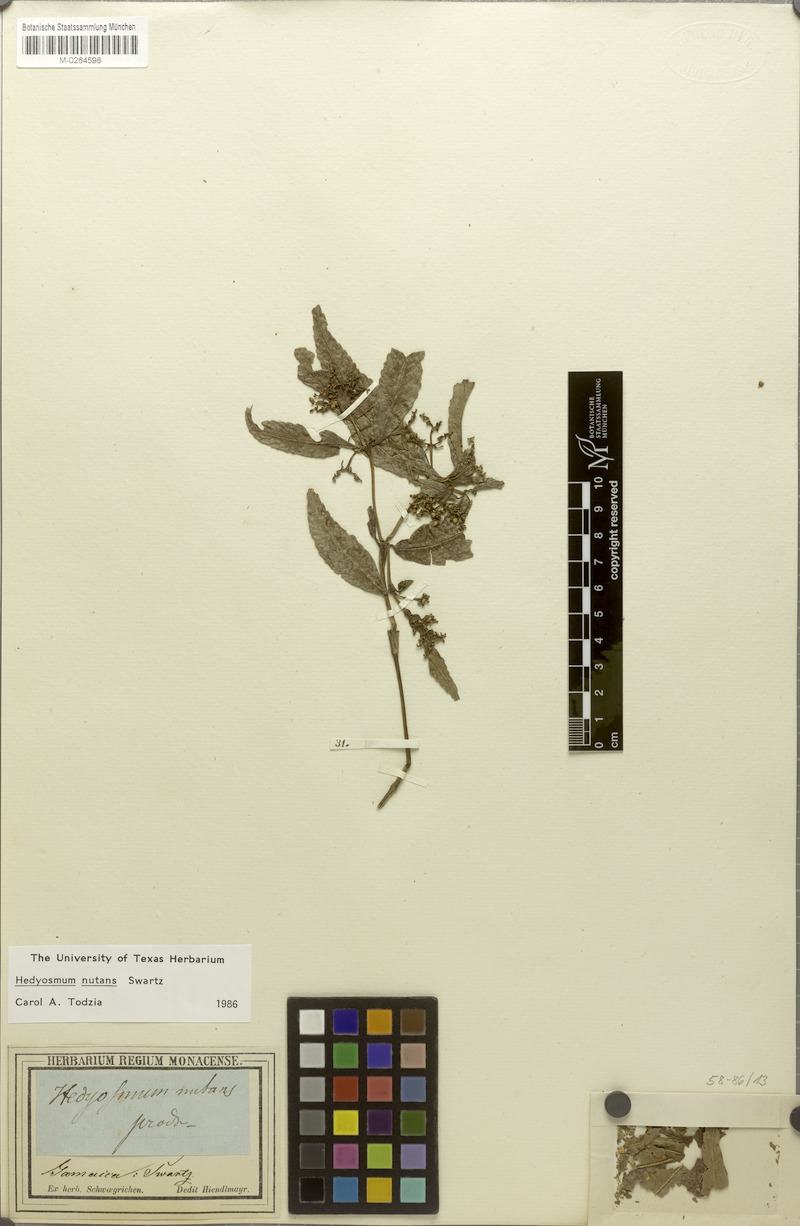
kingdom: Plantae
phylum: Tracheophyta
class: Magnoliopsida
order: Chloranthales
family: Chloranthaceae
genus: Hedyosmum
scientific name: Hedyosmum nutans
